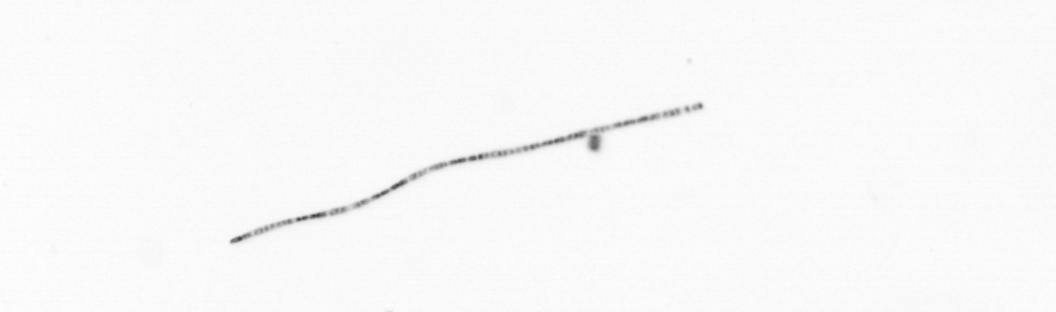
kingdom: Chromista
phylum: Ochrophyta
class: Bacillariophyceae
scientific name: Bacillariophyceae
